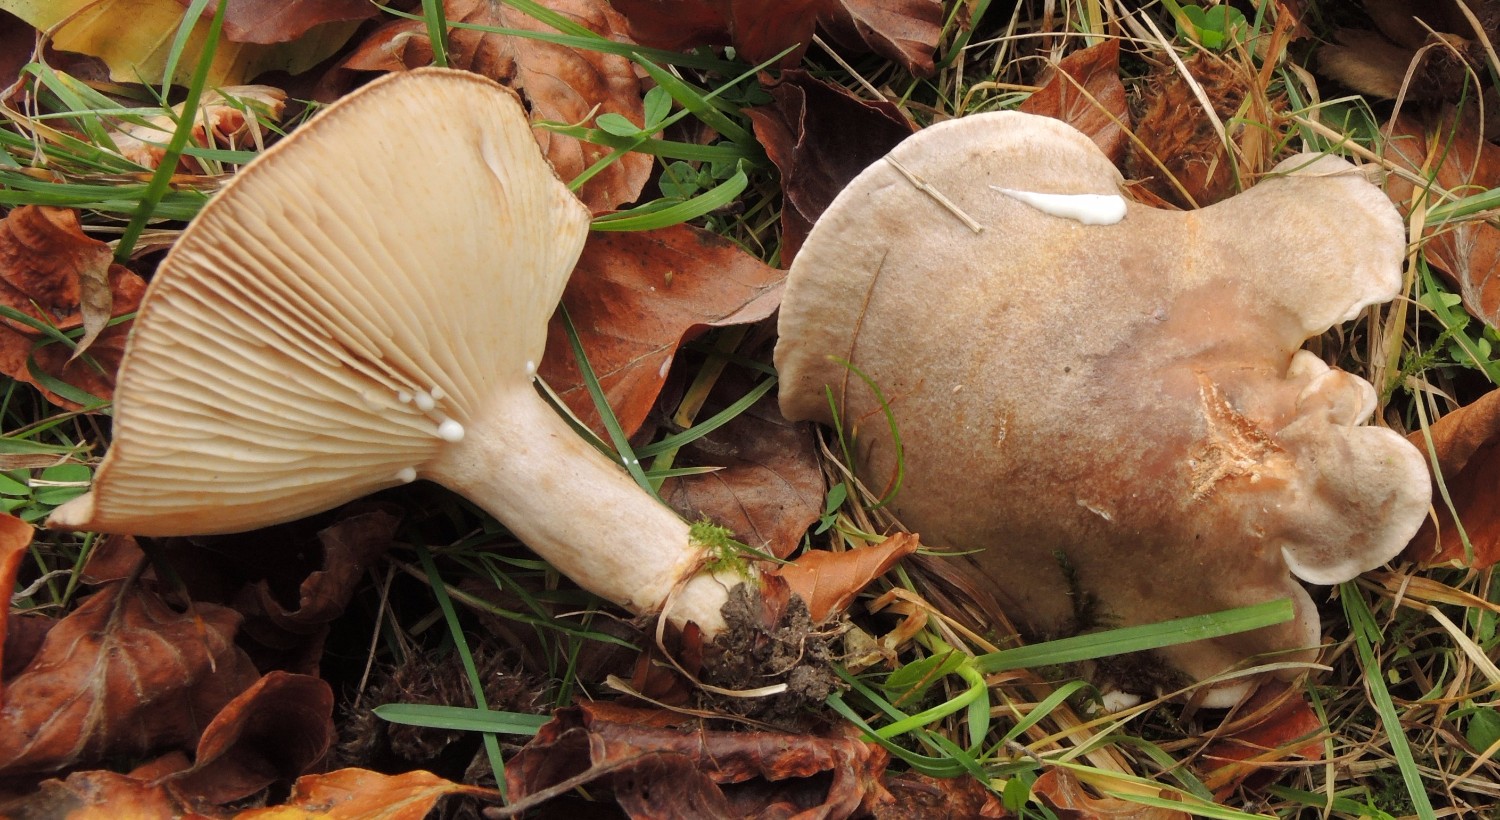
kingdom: Fungi
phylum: Basidiomycota
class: Agaricomycetes
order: Russulales
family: Russulaceae
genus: Lactarius
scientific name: Lactarius fluens
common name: lysrandet mælkehat
